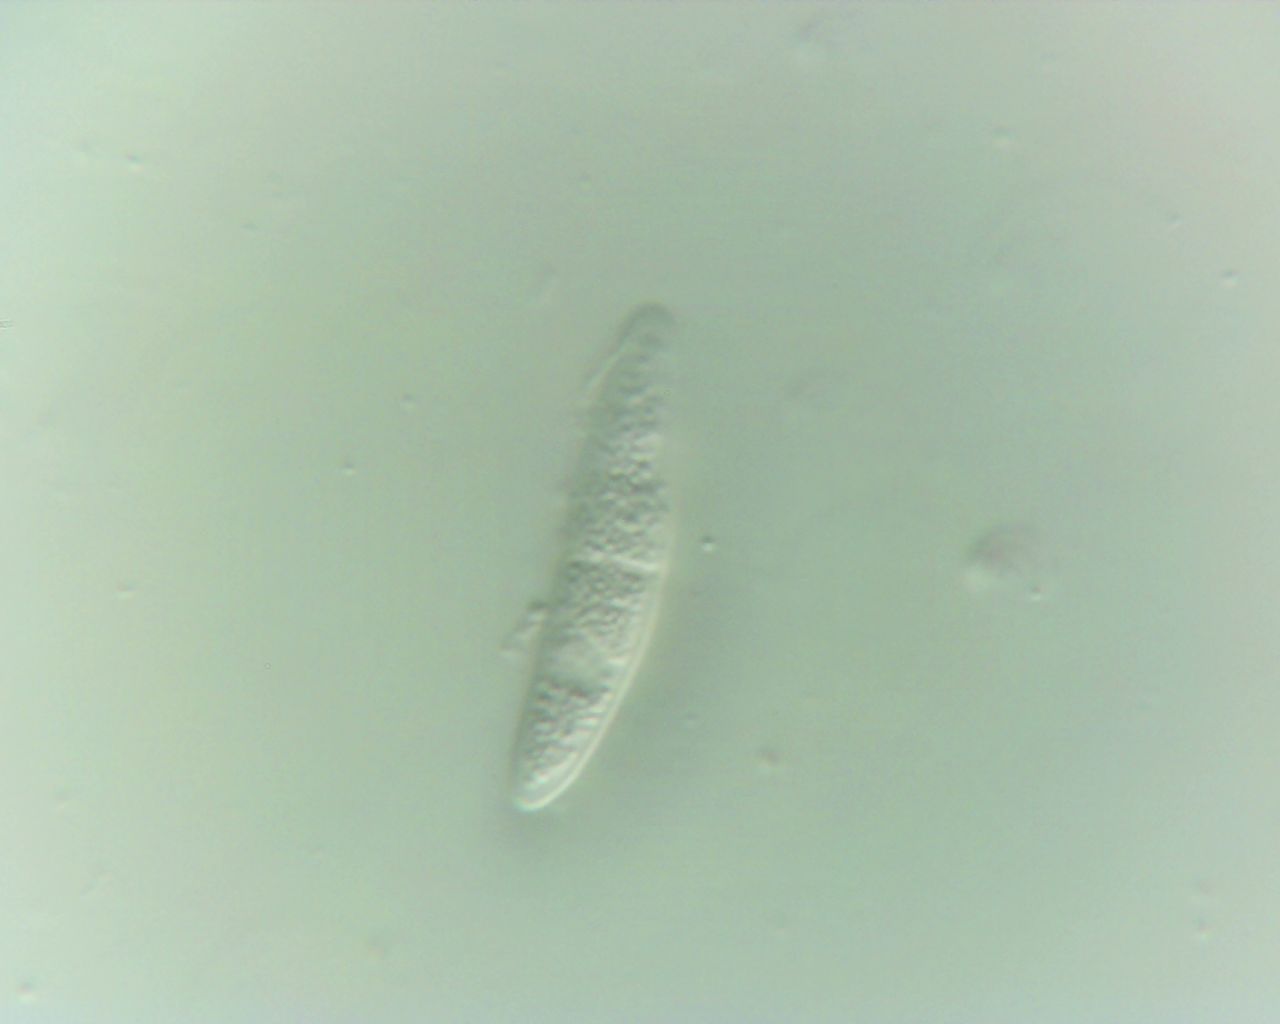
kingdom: Fungi
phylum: Ascomycota
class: Sordariomycetes
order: Coronophorales
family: Bertiaceae
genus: Bertia
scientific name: Bertia moriformis
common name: almindelig morbærkerne
